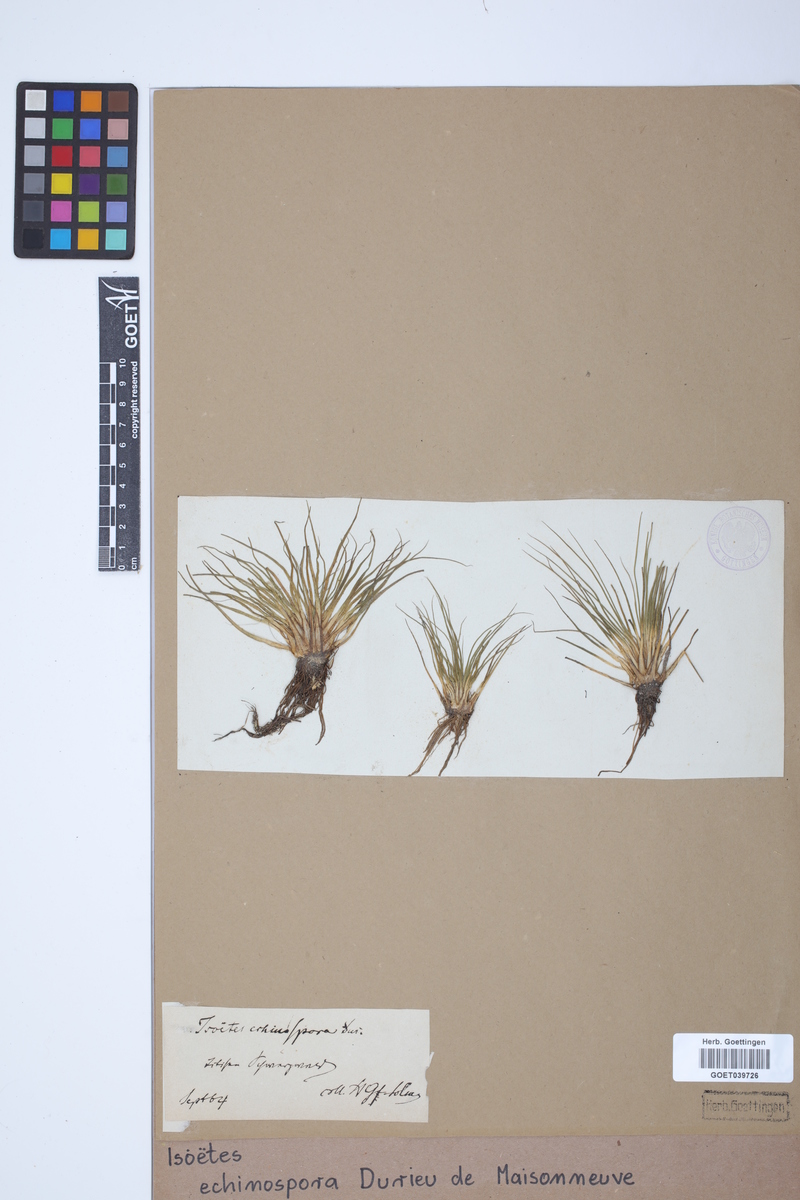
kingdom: Plantae
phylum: Tracheophyta
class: Lycopodiopsida
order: Isoetales
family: Isoetaceae
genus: Isoetes
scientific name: Isoetes echinospora
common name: Spring quillwort
